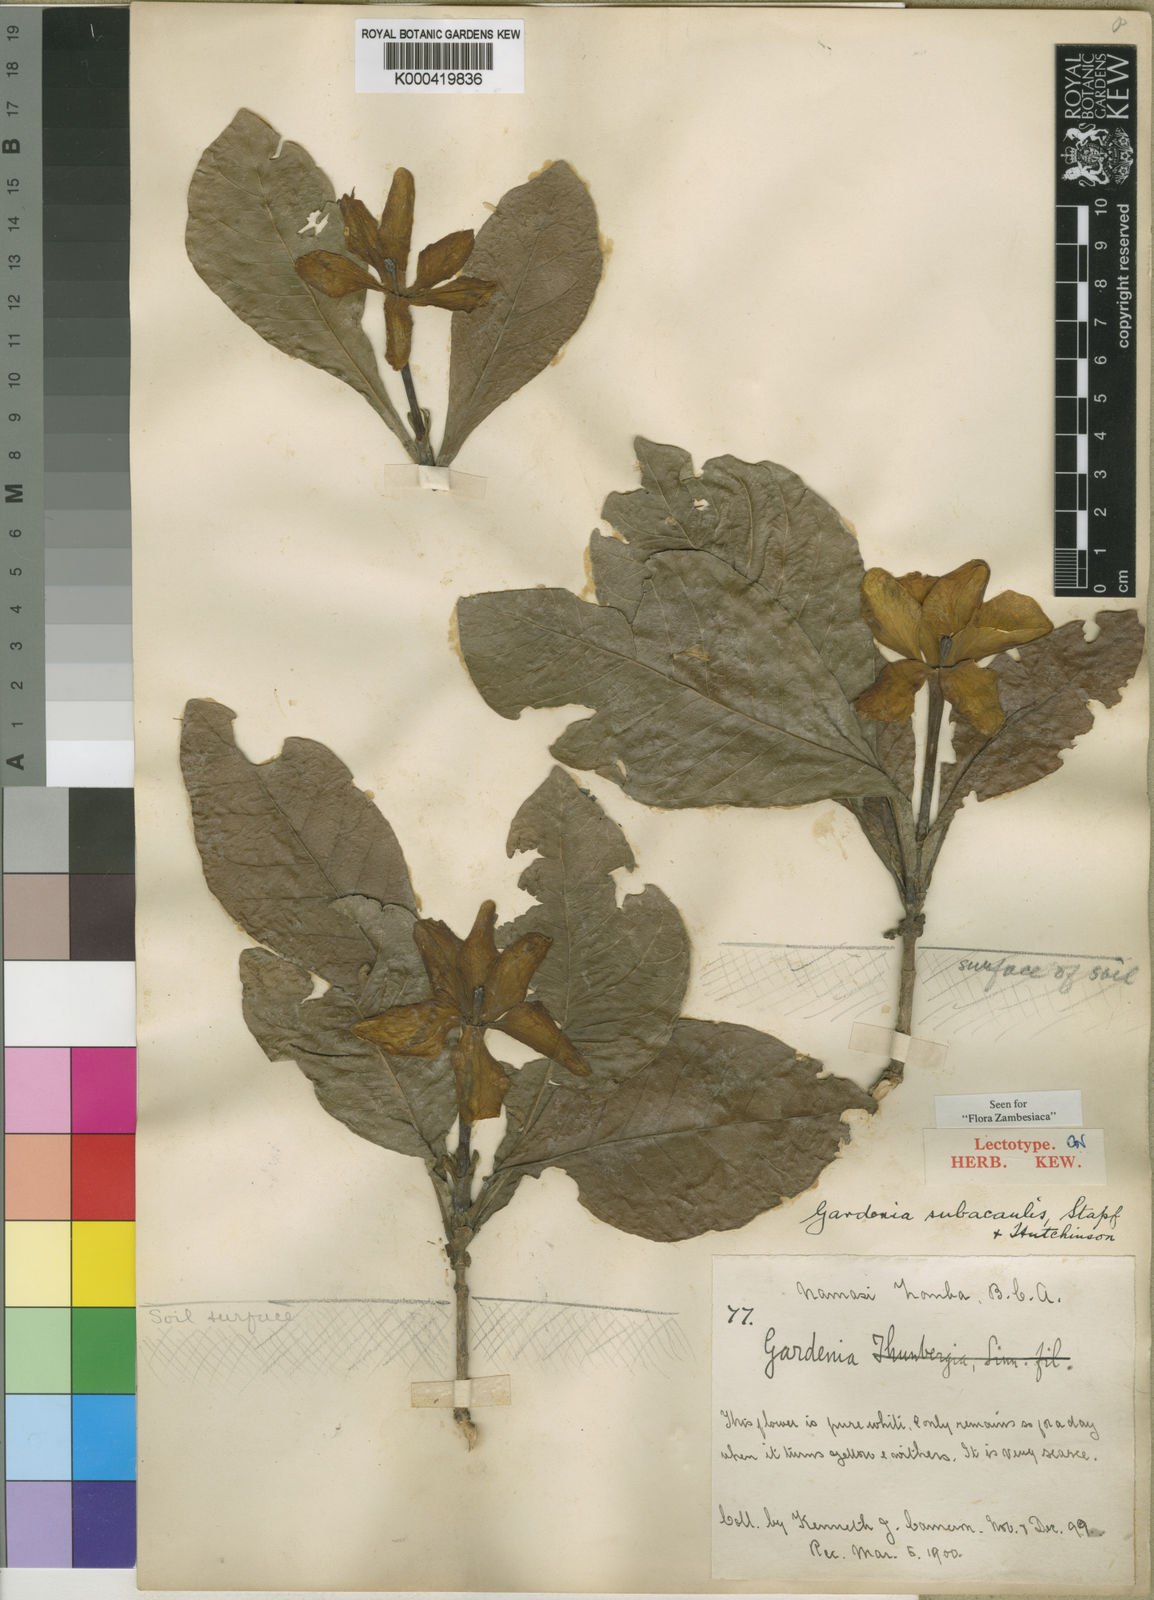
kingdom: Plantae
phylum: Tracheophyta
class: Magnoliopsida
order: Gentianales
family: Rubiaceae
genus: Gardenia
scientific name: Gardenia subacaulis
